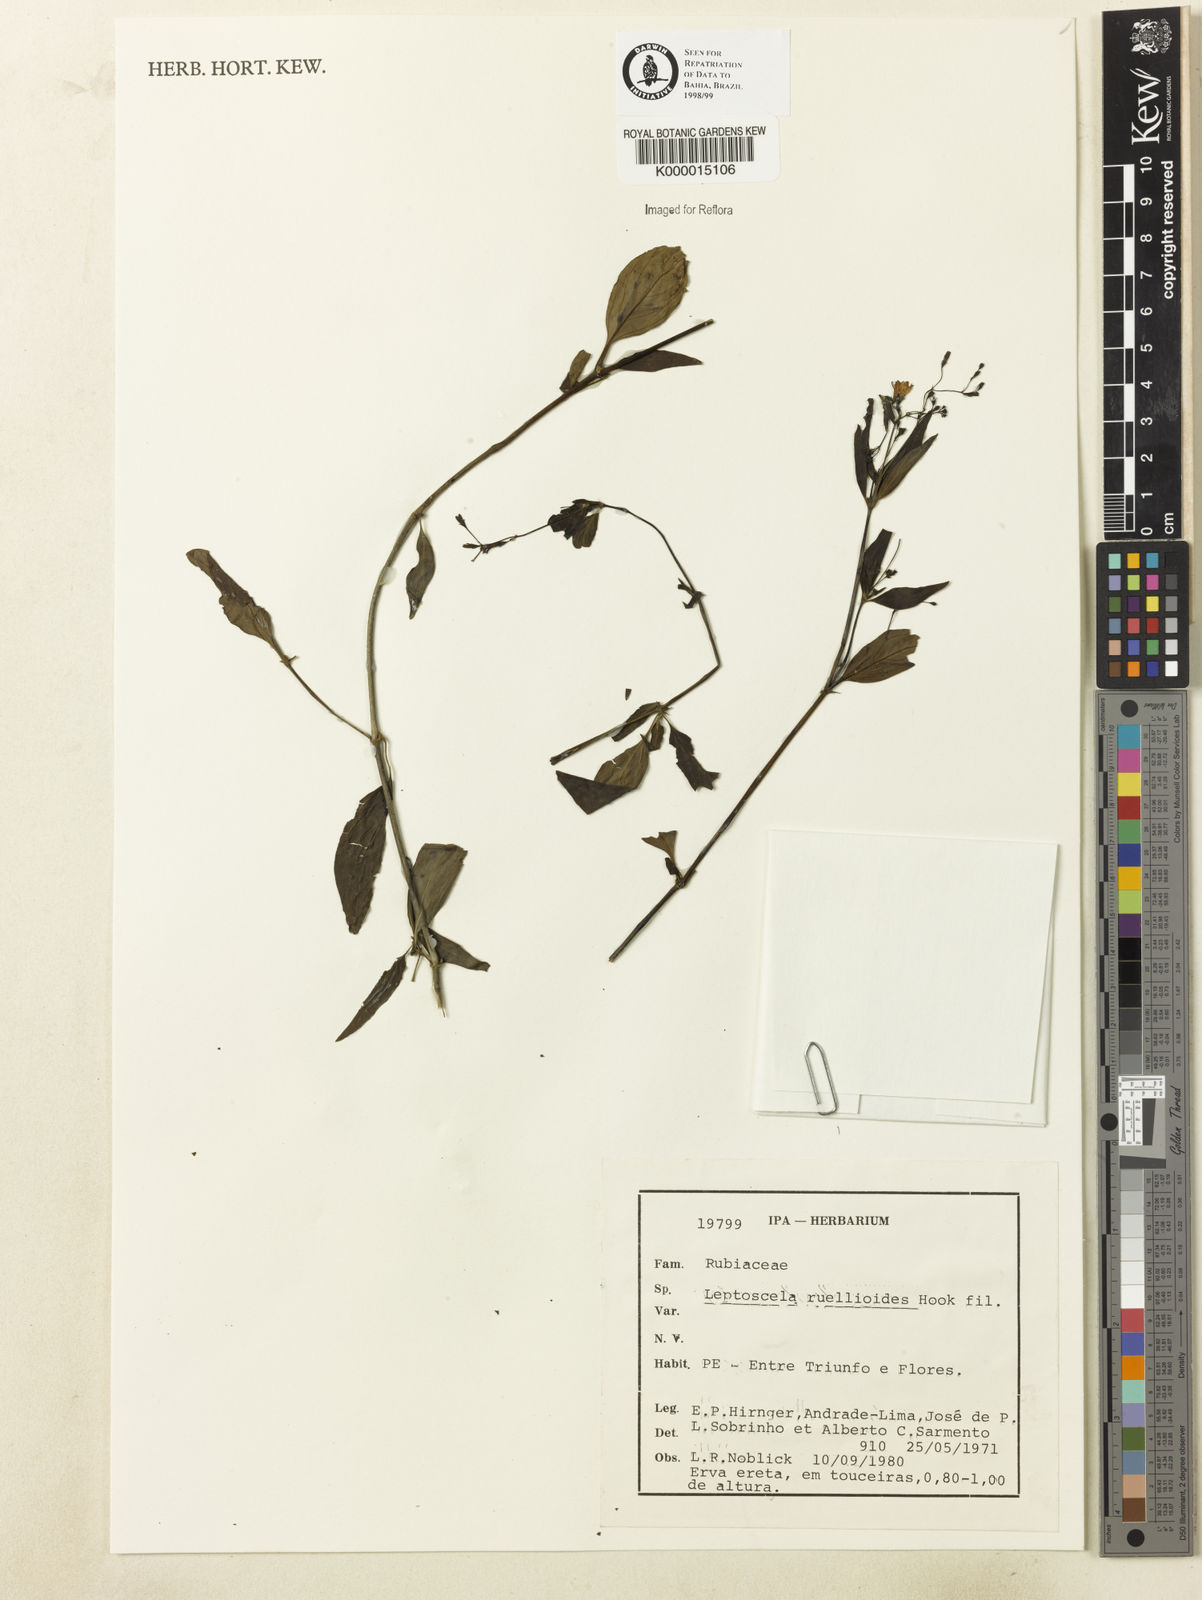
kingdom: Plantae
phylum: Tracheophyta
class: Magnoliopsida
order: Gentianales
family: Rubiaceae
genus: Leptoscela
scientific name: Leptoscela
